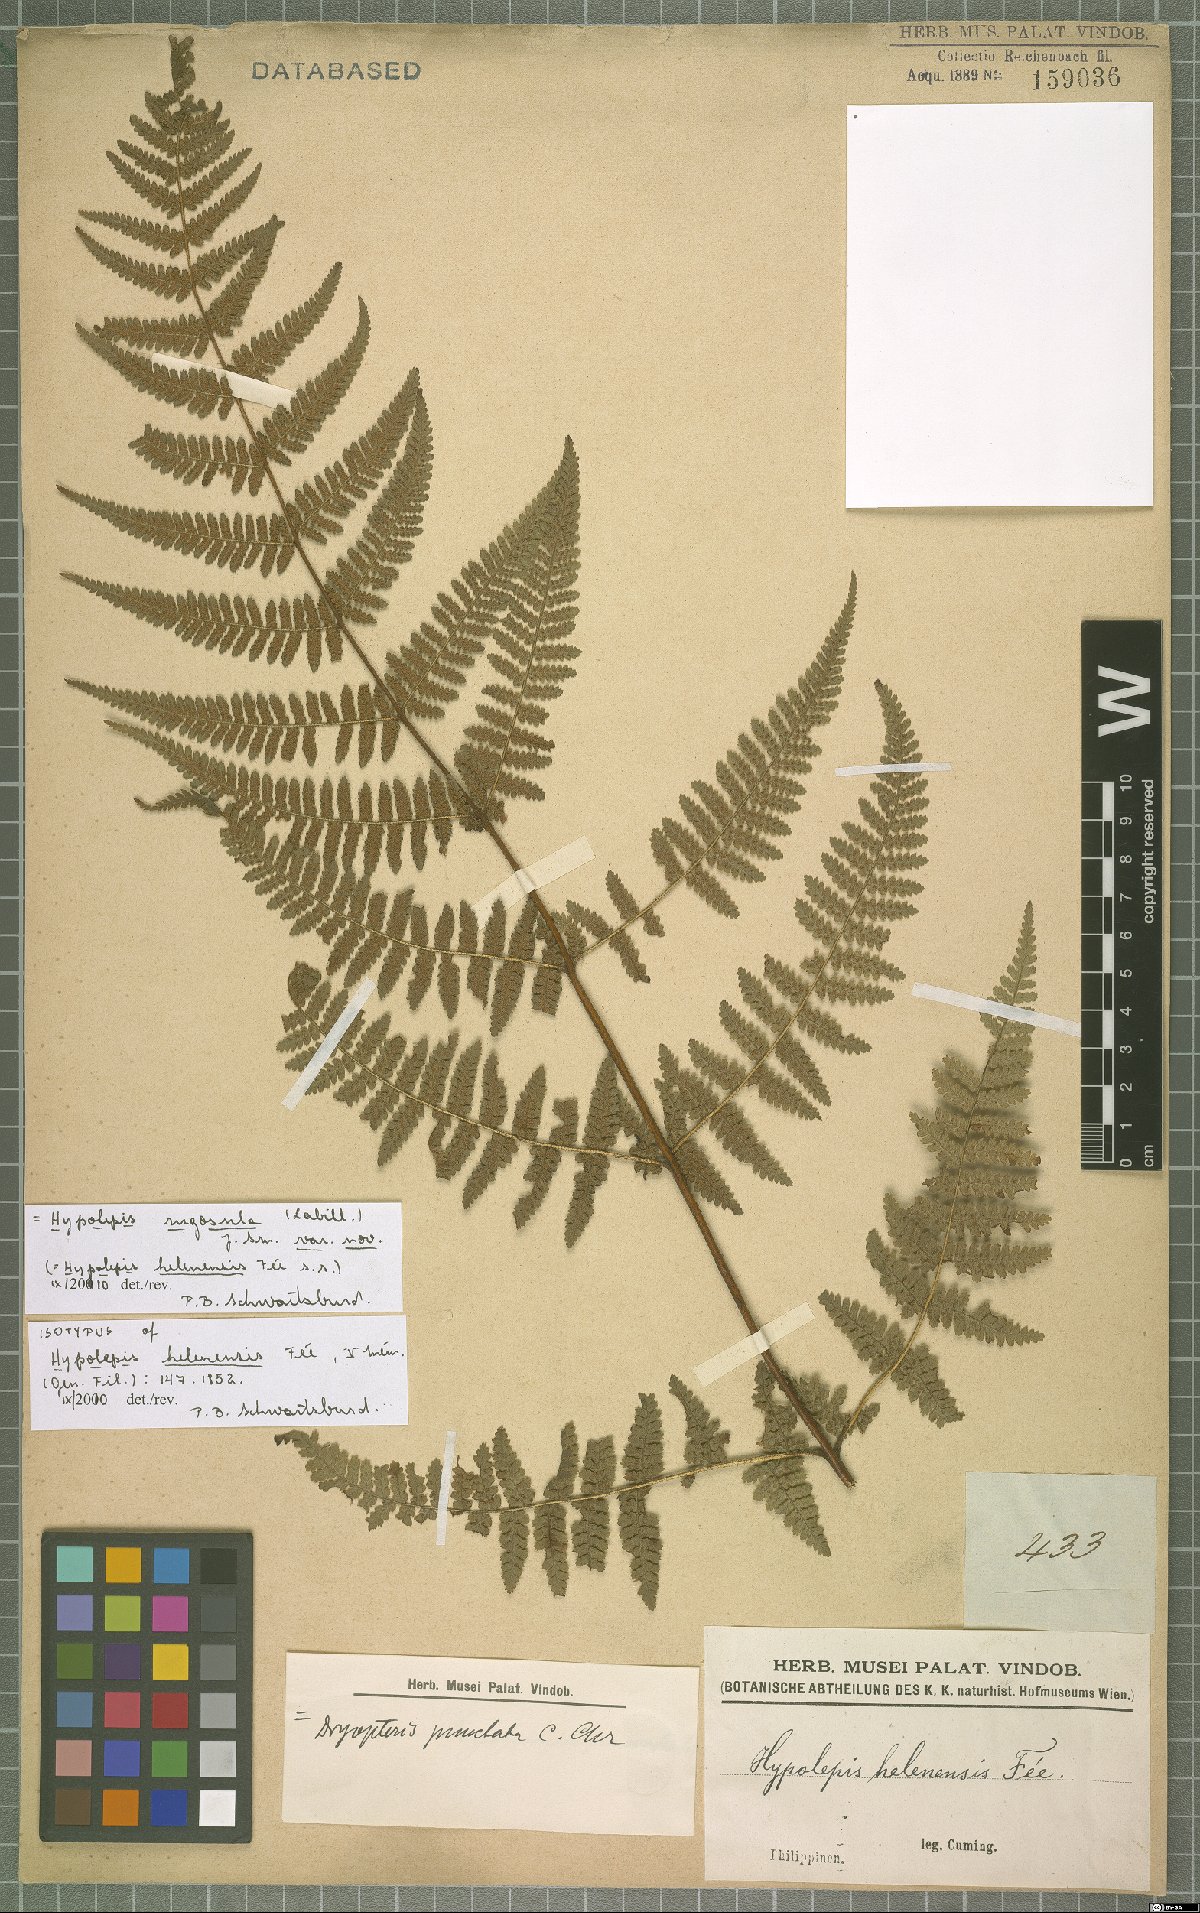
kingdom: Plantae
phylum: Tracheophyta
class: Polypodiopsida
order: Polypodiales
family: Dennstaedtiaceae
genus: Hypolepis
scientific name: Hypolepis rugosula
